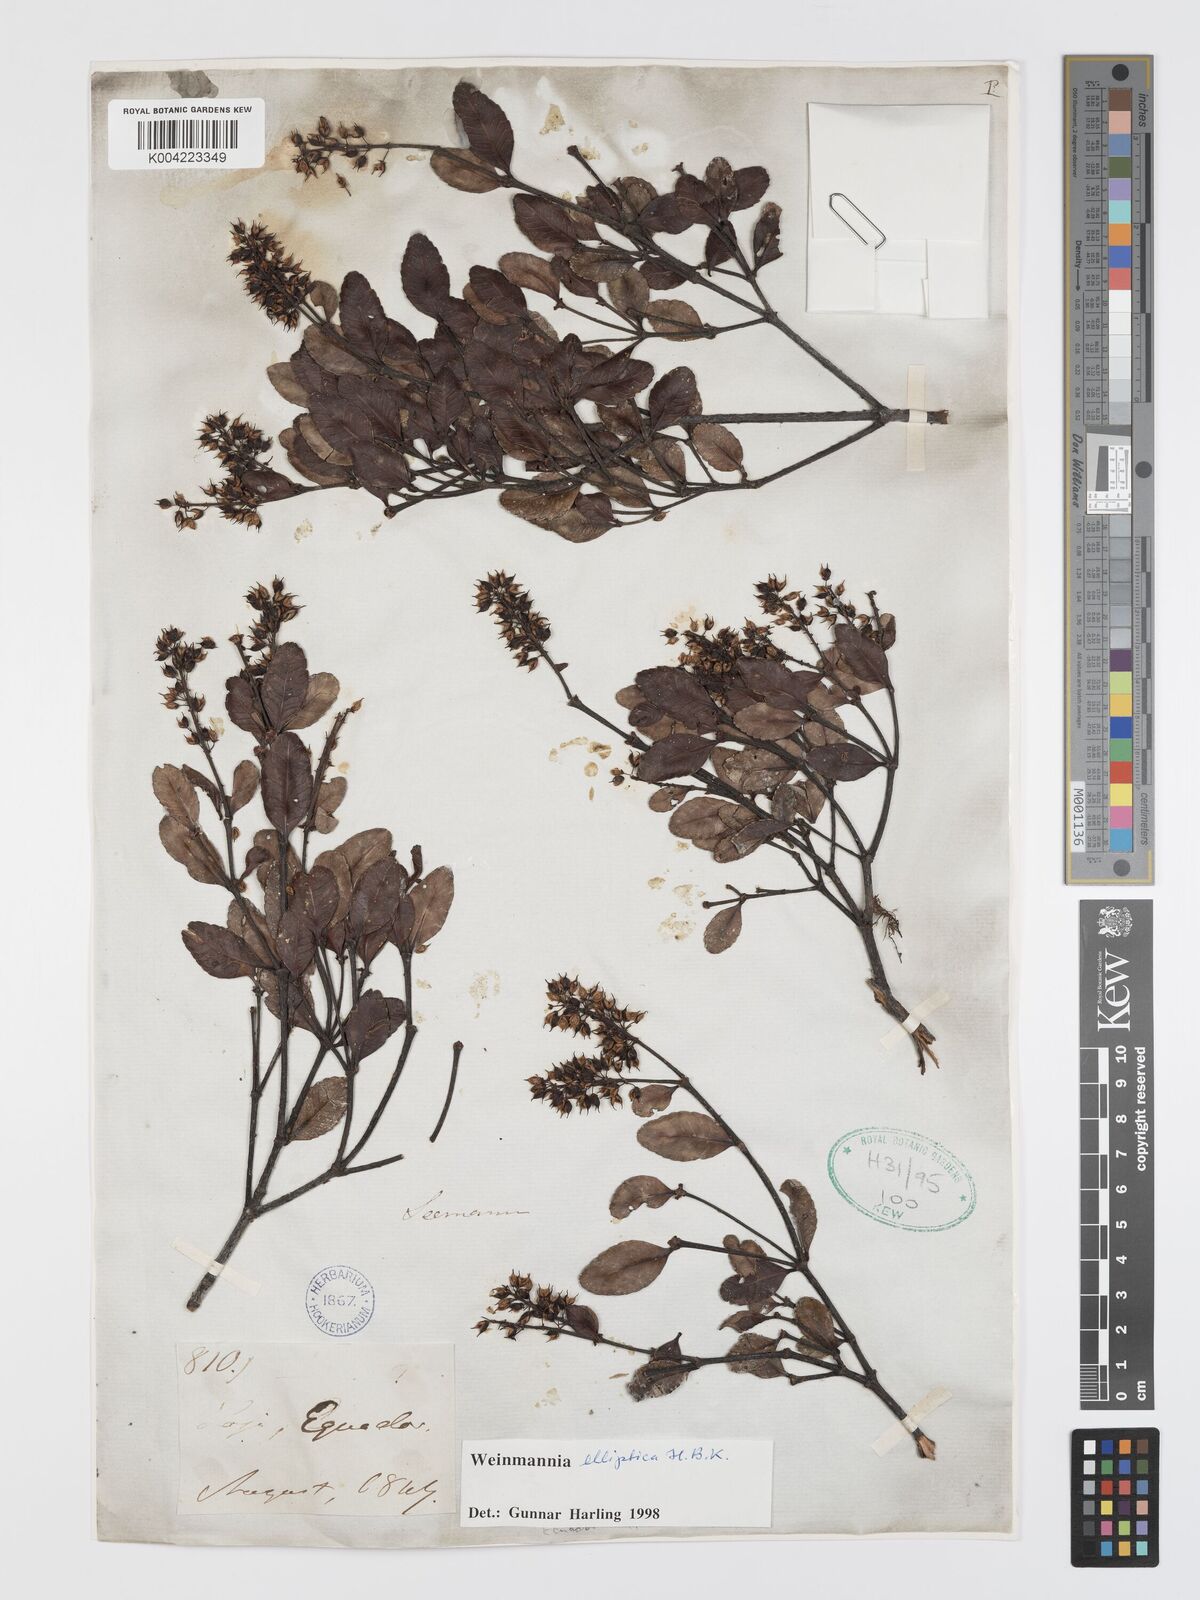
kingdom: Plantae
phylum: Tracheophyta
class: Magnoliopsida
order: Oxalidales
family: Cunoniaceae
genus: Weinmannia
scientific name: Weinmannia elliptica
